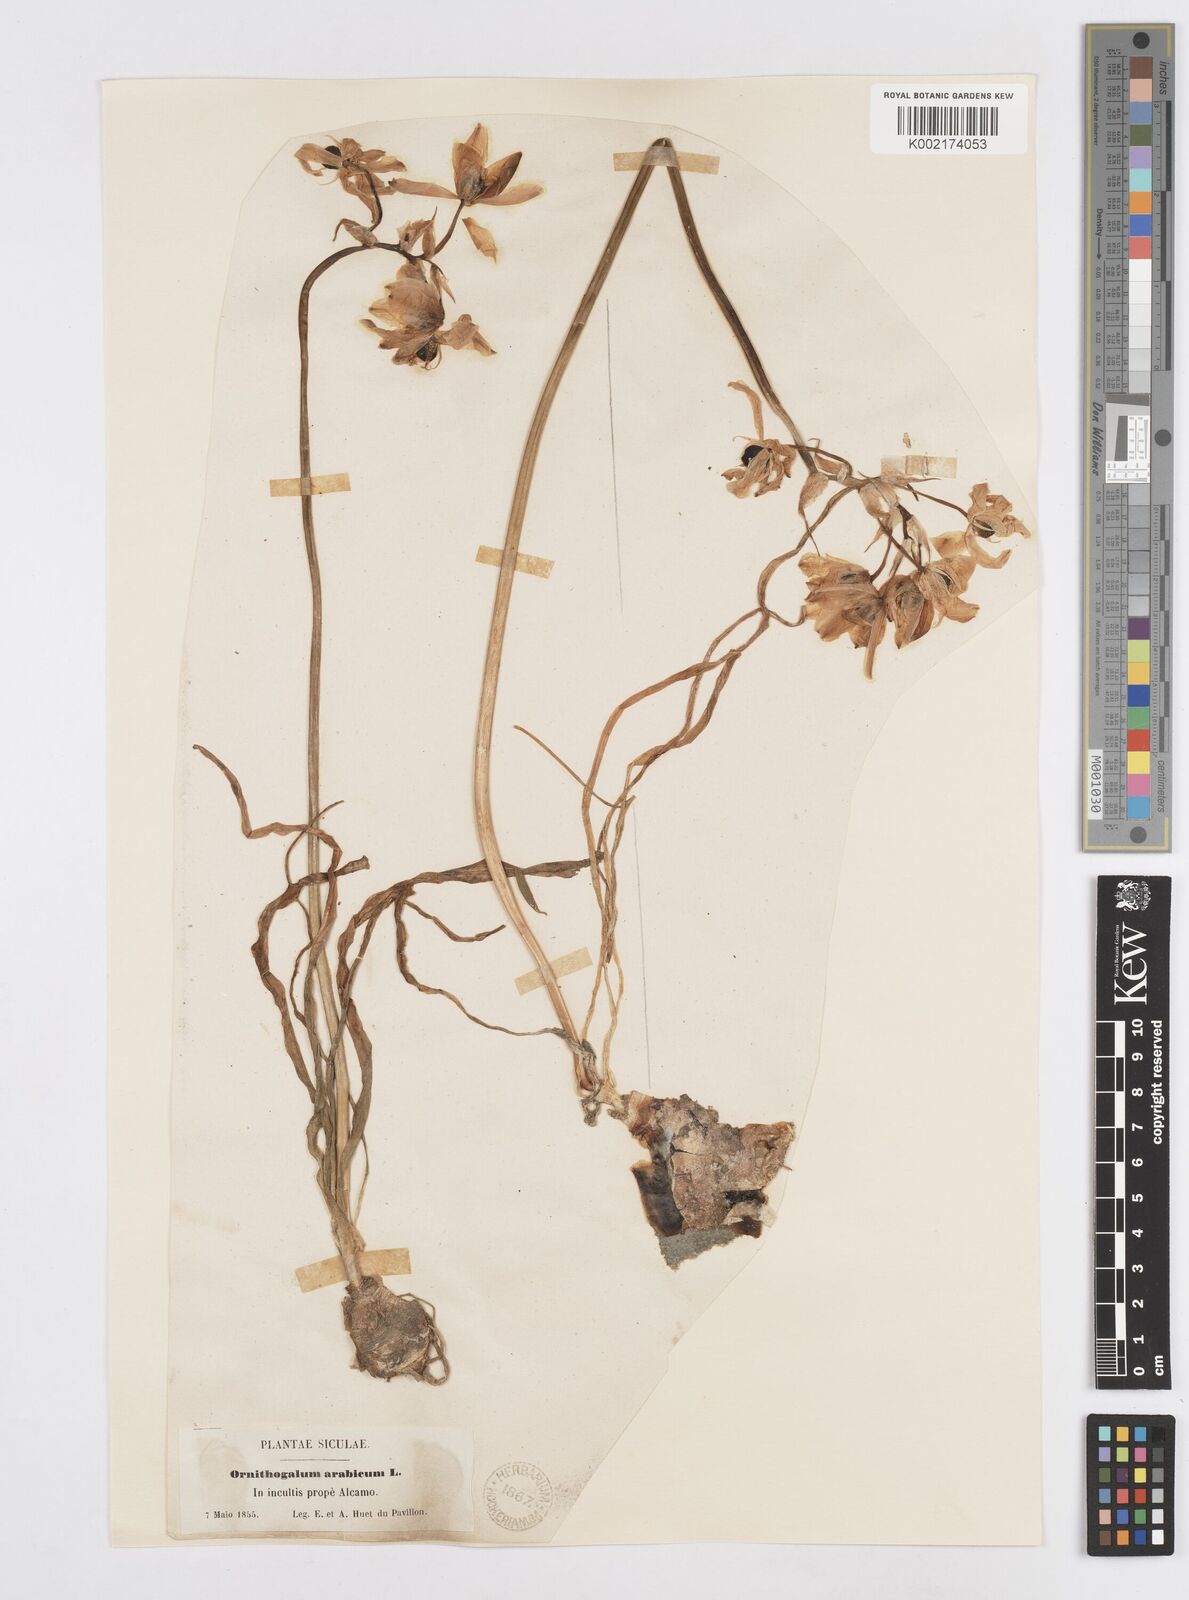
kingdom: Plantae
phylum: Tracheophyta
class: Liliopsida
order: Asparagales
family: Asparagaceae
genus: Ornithogalum
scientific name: Ornithogalum arabicum
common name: Arabian starflower
